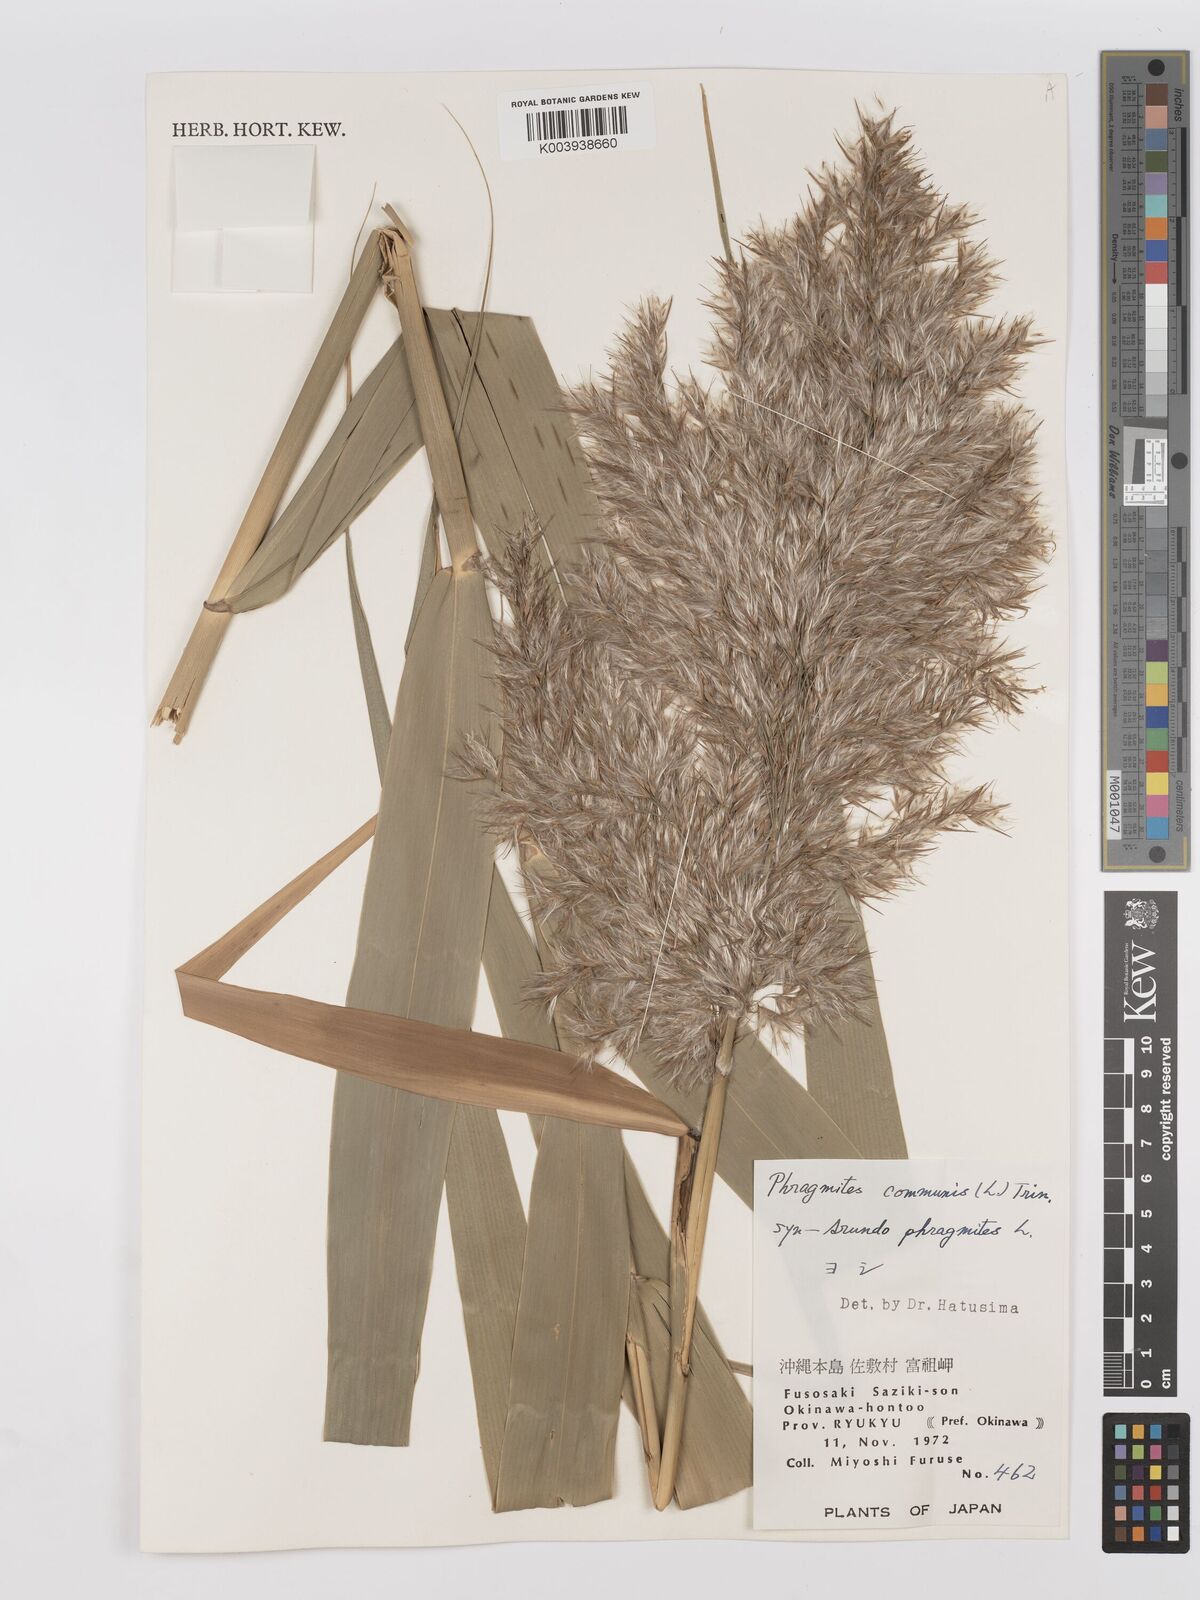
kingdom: Plantae
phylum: Tracheophyta
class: Liliopsida
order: Poales
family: Poaceae
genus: Phragmites
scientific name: Phragmites australis
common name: Common reed
